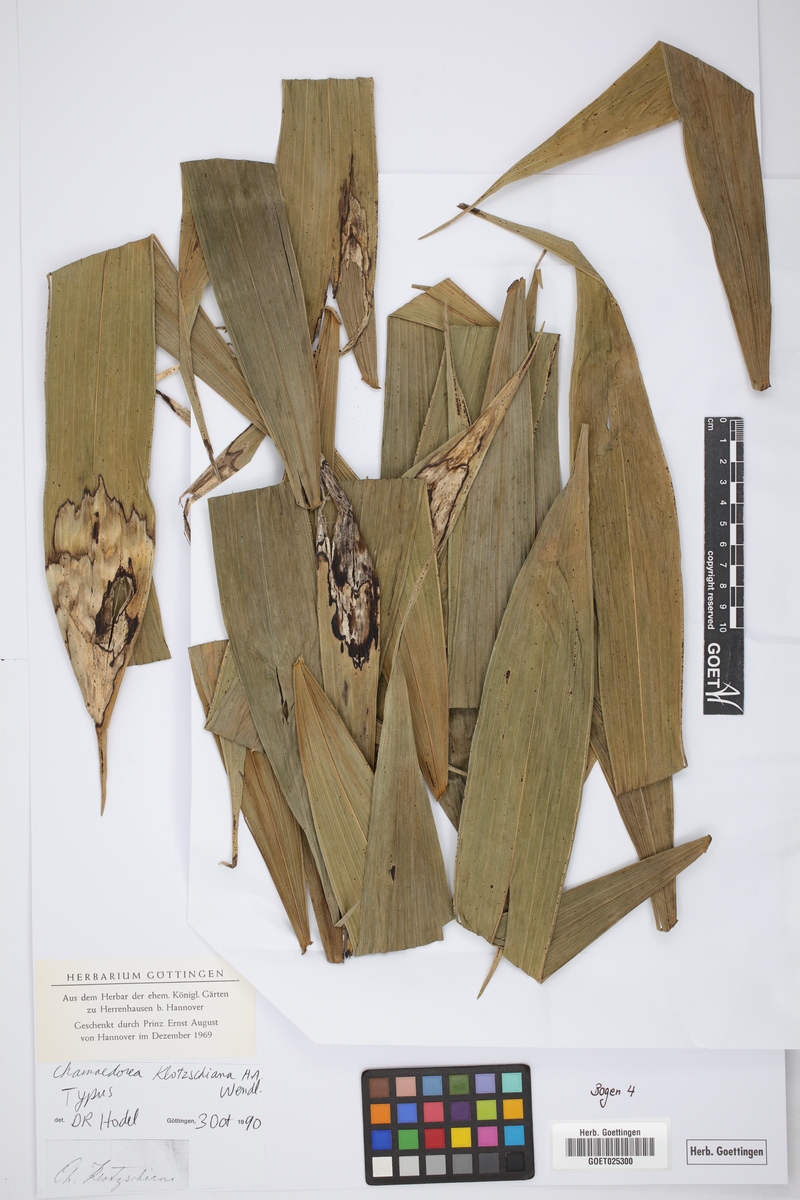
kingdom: Plantae
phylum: Tracheophyta
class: Liliopsida
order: Arecales
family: Arecaceae
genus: Chamaedorea
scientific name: Chamaedorea klotzschiana
